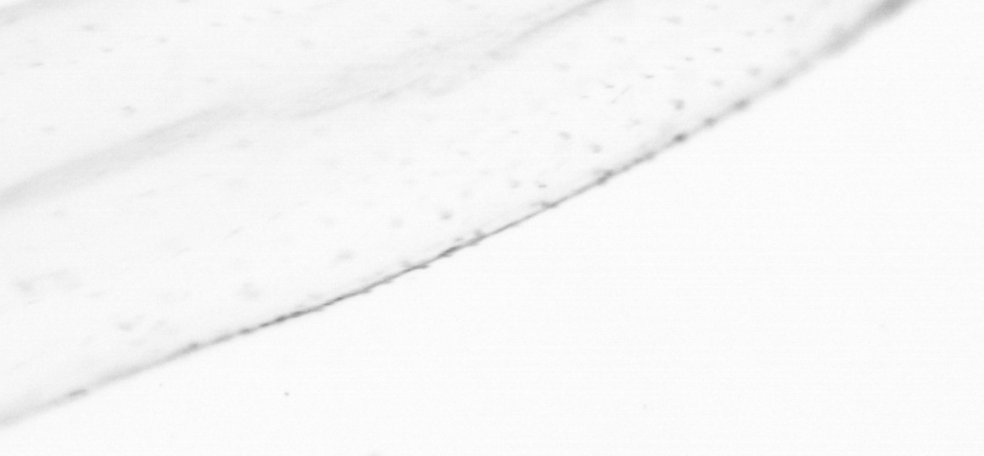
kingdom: Animalia
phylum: Chaetognatha
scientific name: Chaetognatha
